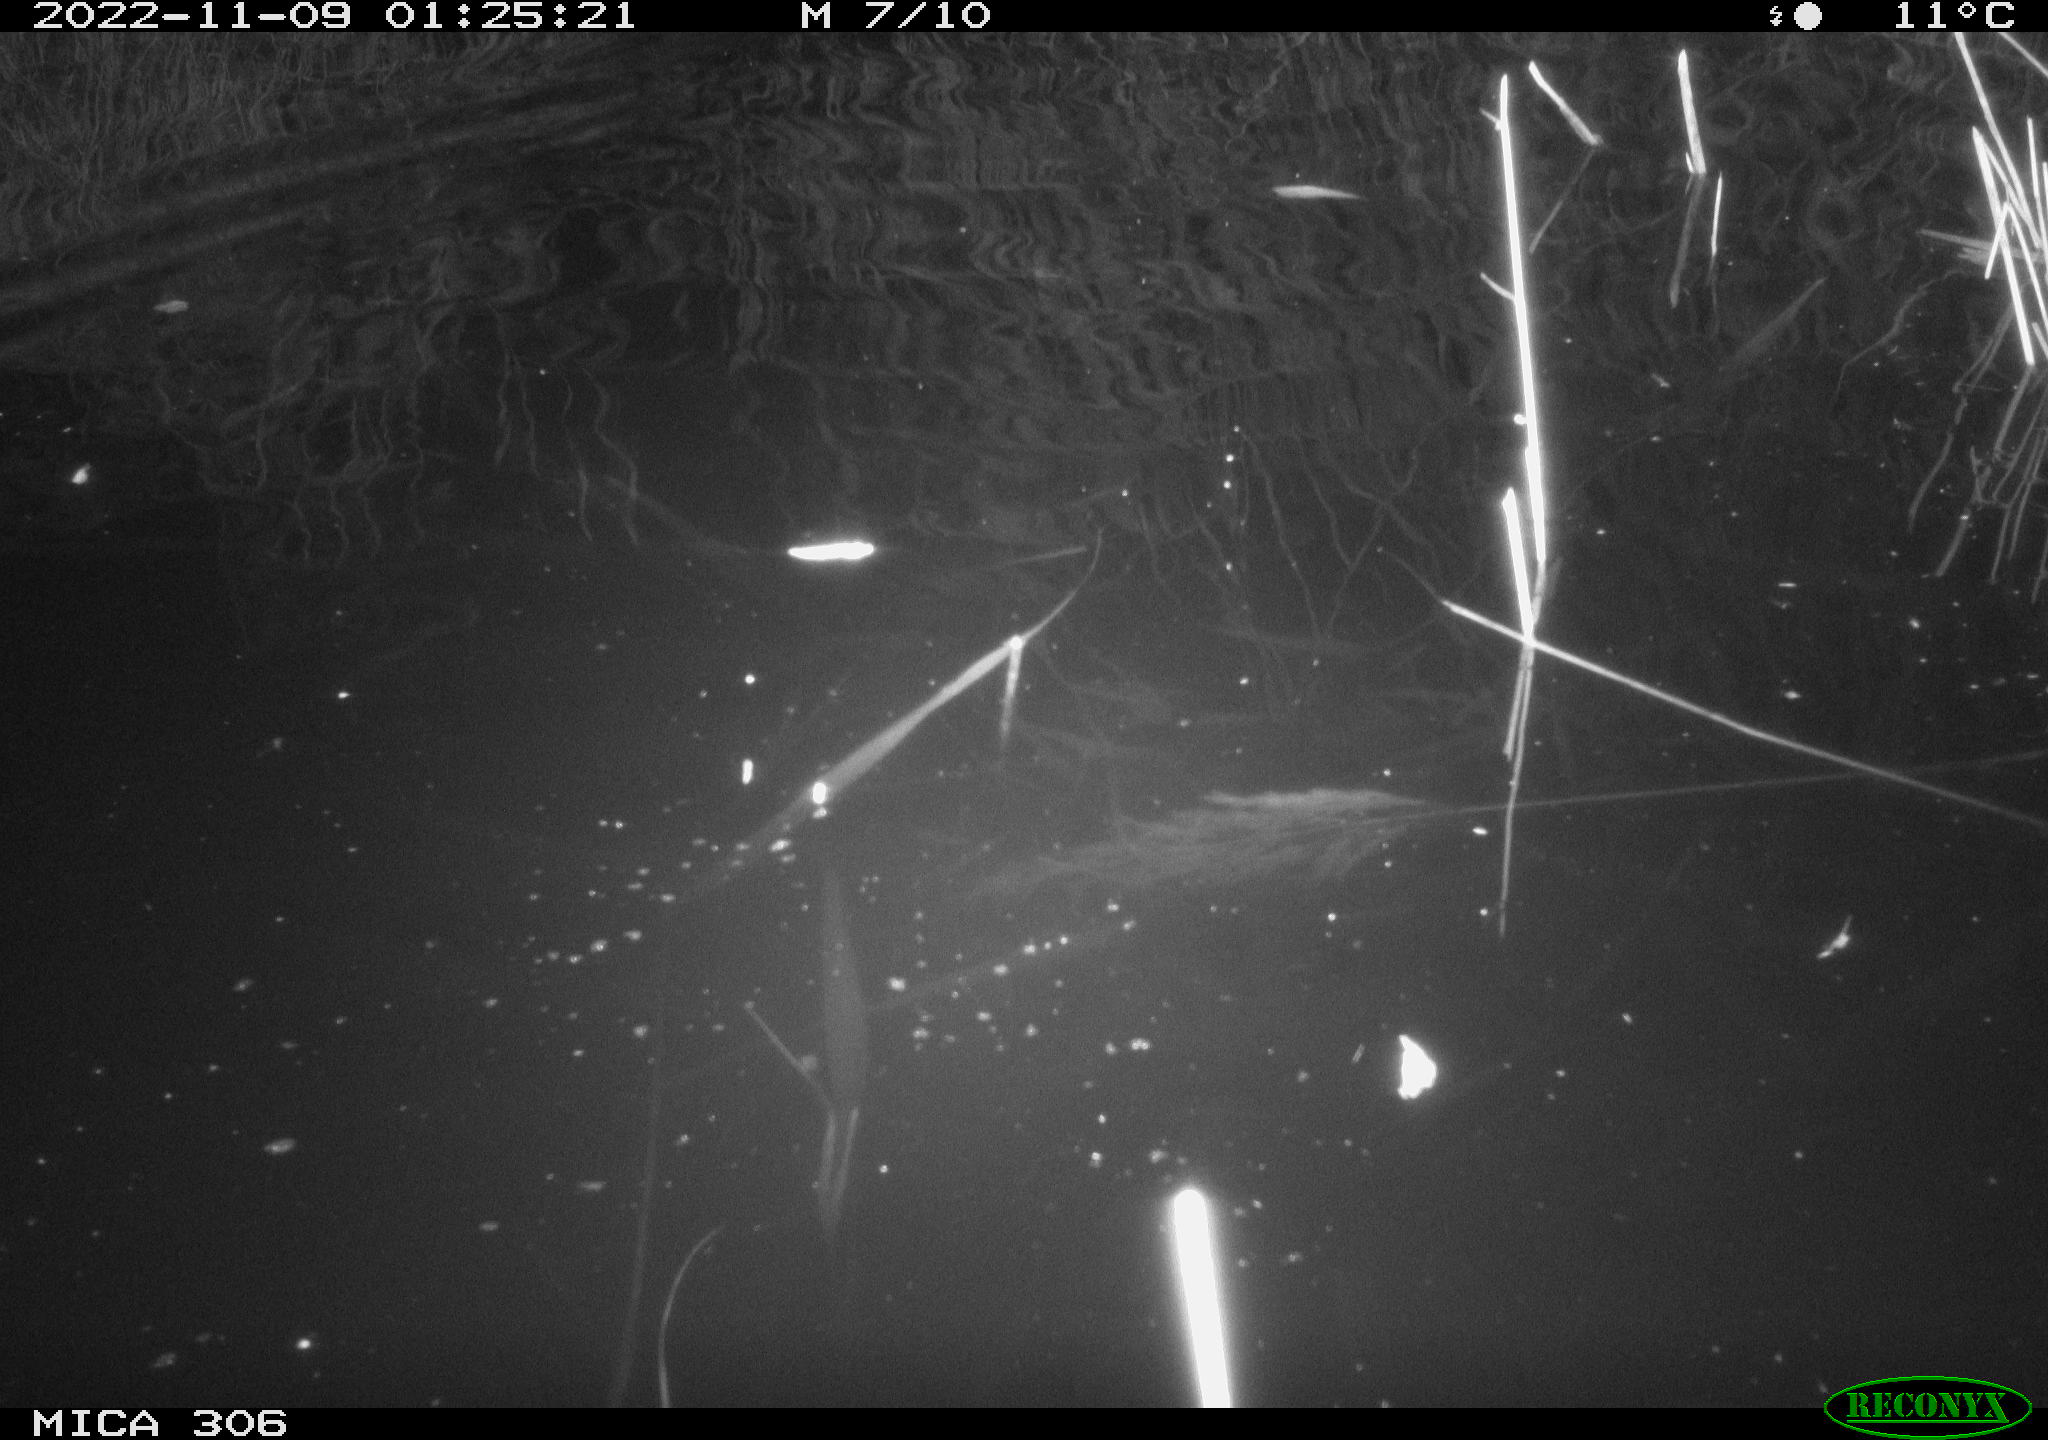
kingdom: Animalia
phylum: Chordata
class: Mammalia
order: Rodentia
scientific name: Rodentia
